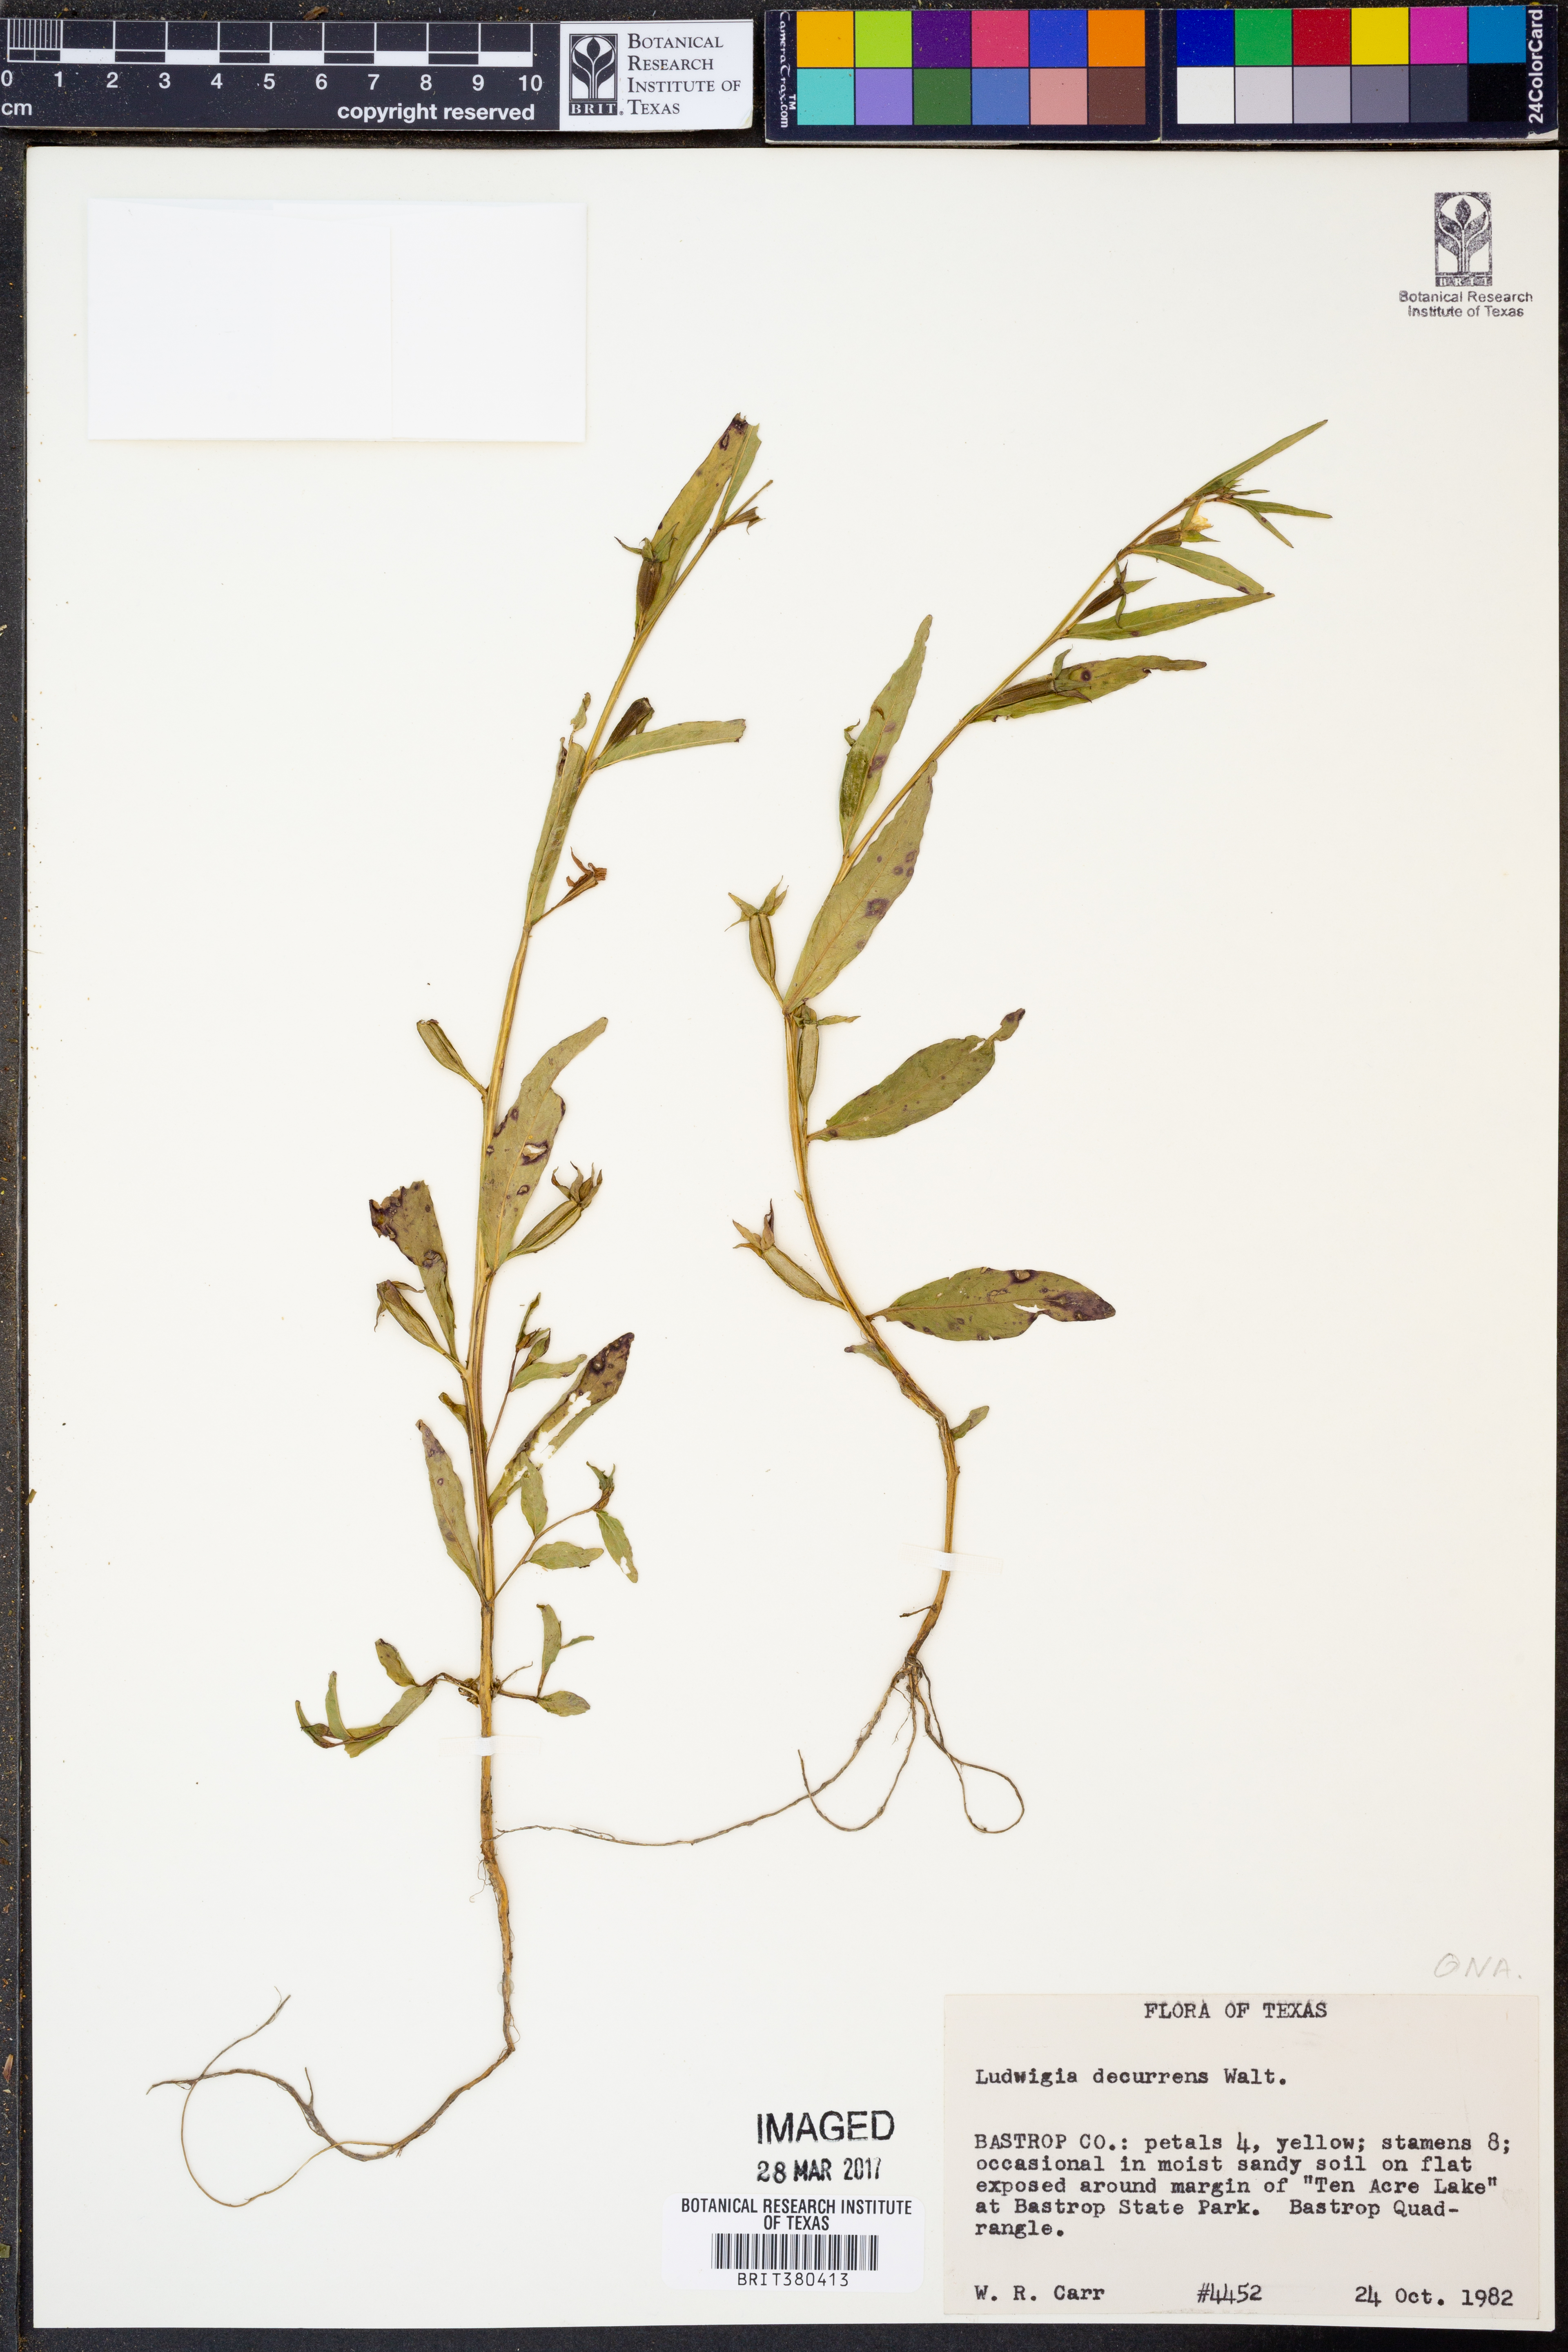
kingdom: Plantae
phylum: Tracheophyta
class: Magnoliopsida
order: Myrtales
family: Onagraceae
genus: Ludwigia
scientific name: Ludwigia decurrens
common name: Winged water-primrose
